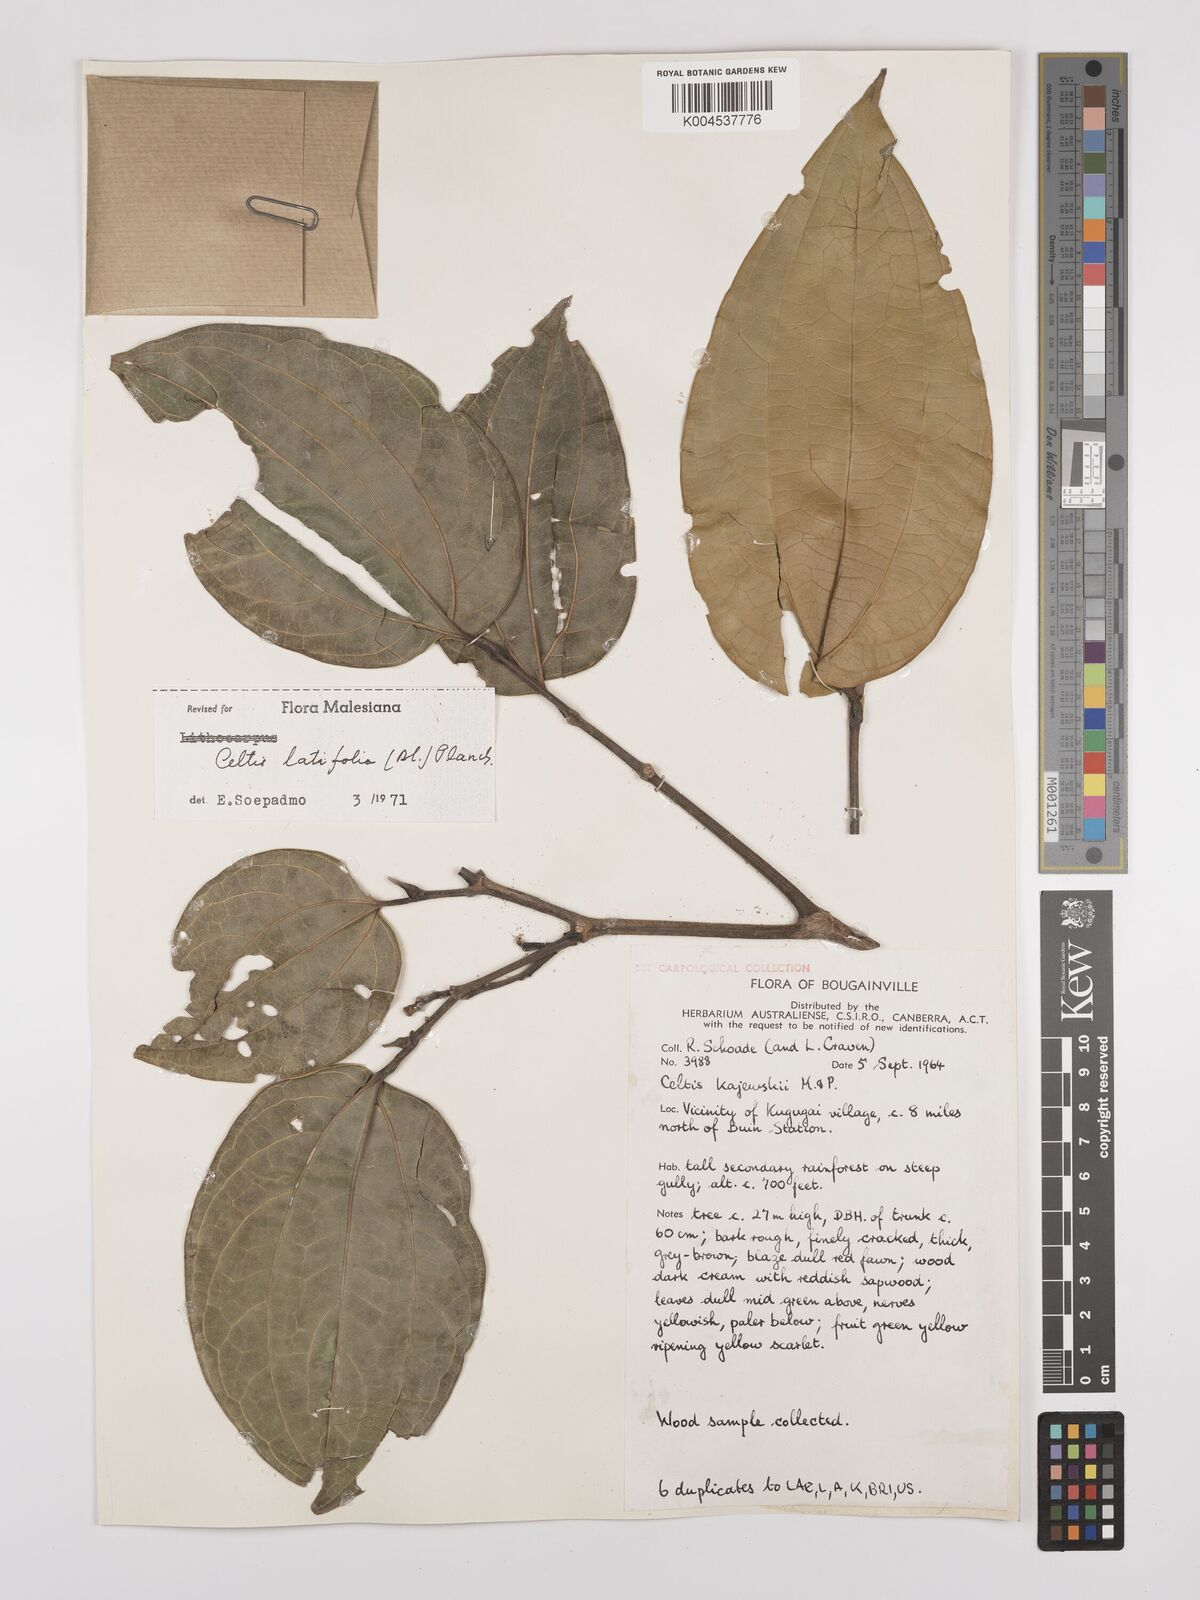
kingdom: Plantae
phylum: Tracheophyta
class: Magnoliopsida
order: Rosales
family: Cannabaceae
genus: Celtis
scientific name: Celtis latifolia
